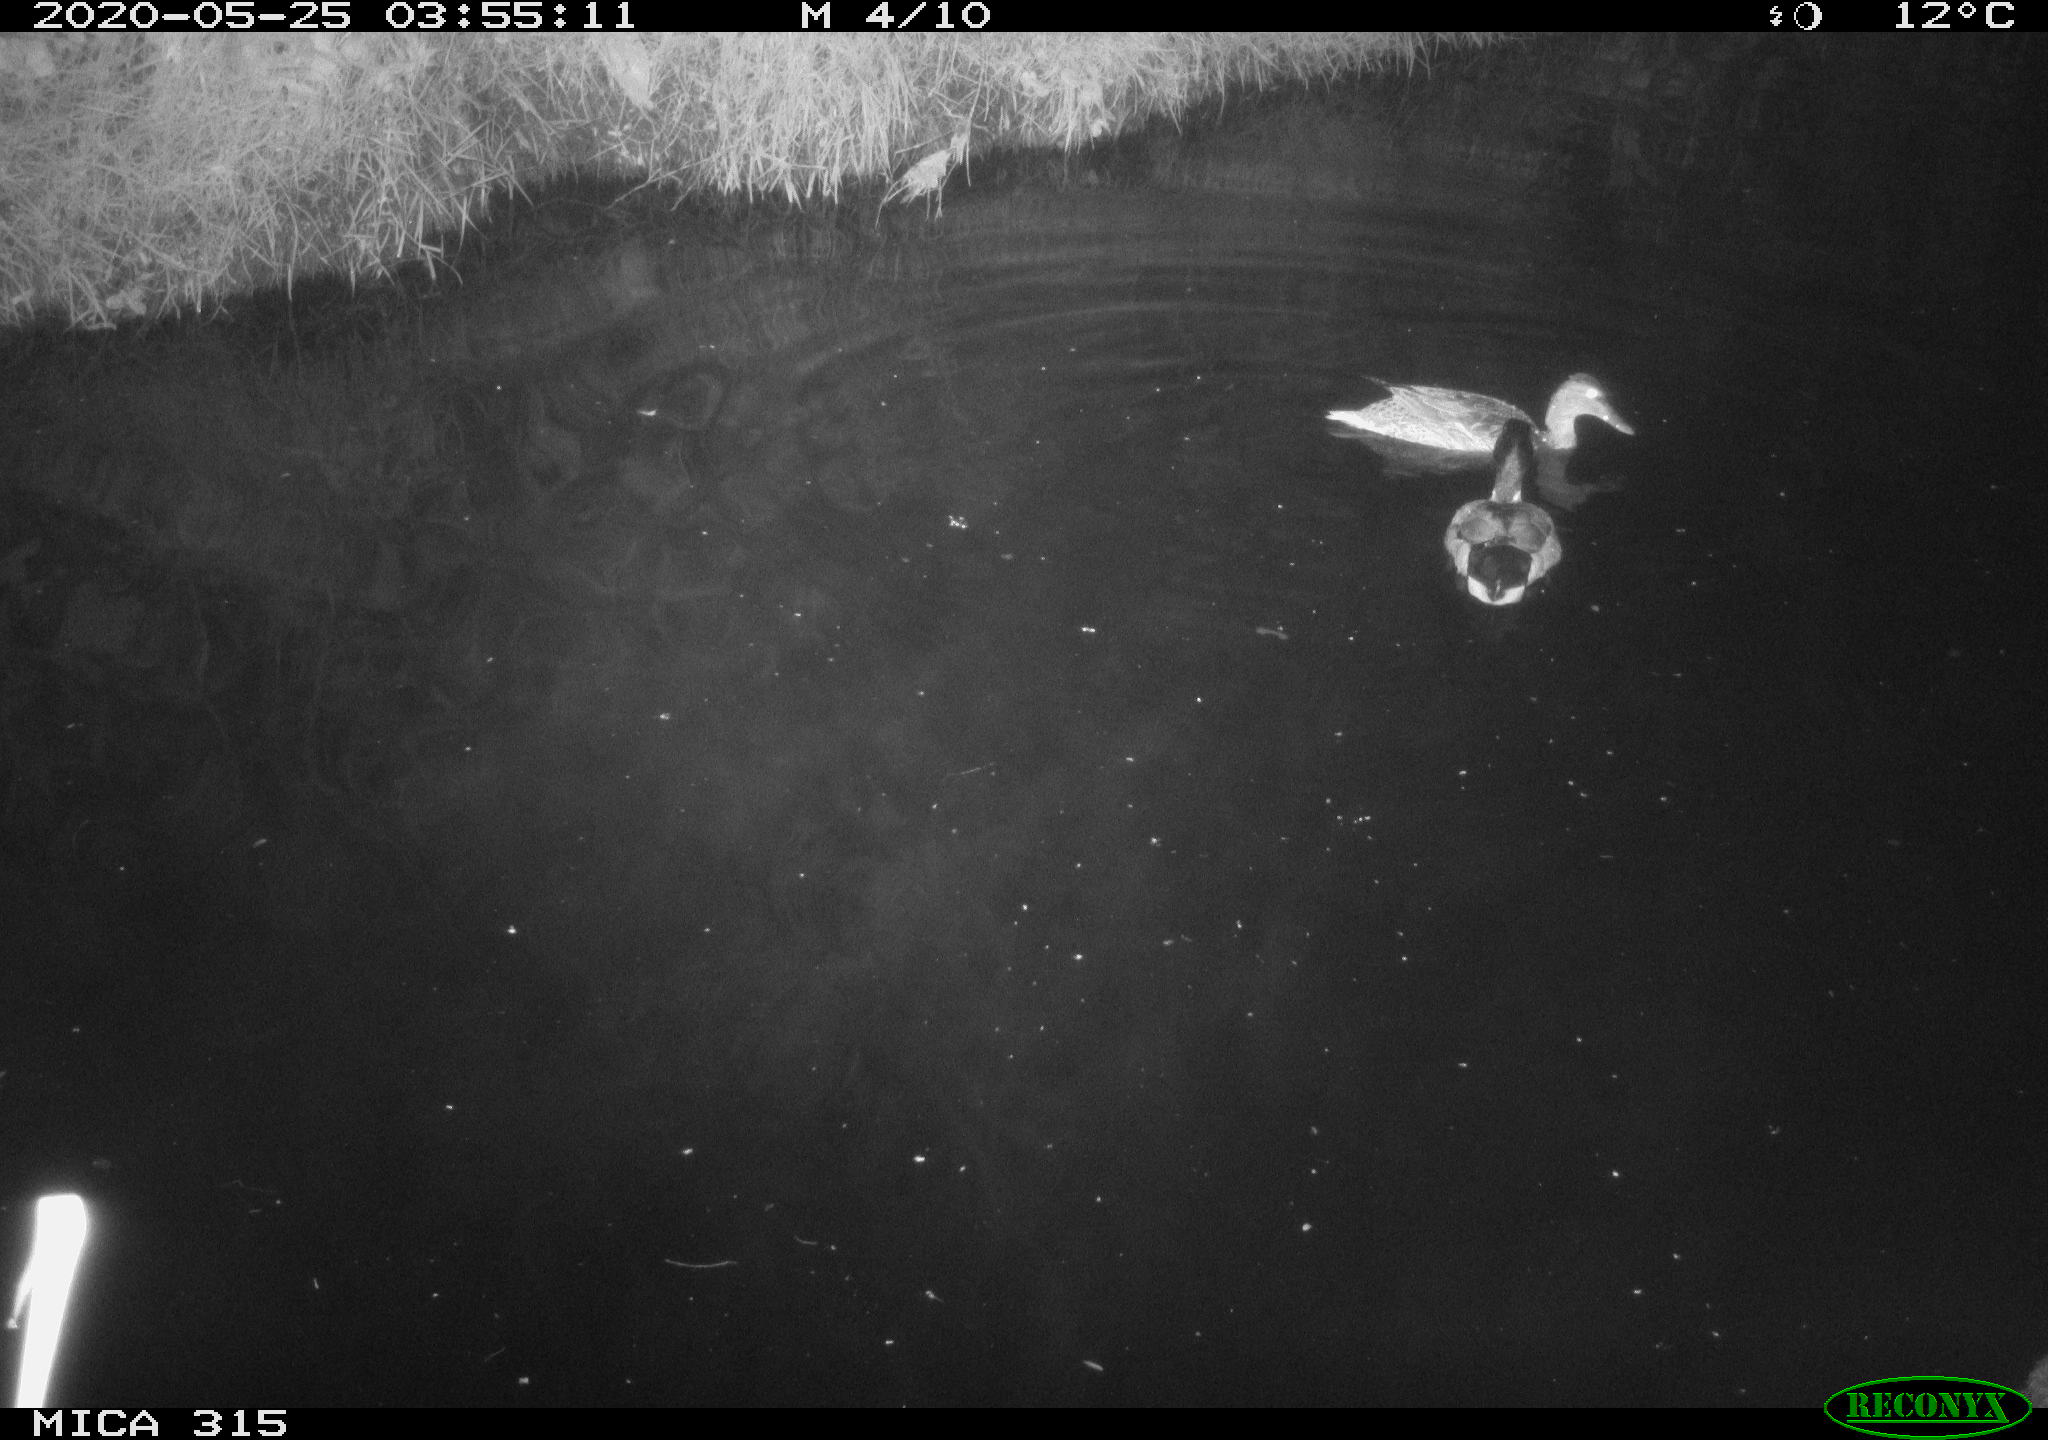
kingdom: Animalia
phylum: Chordata
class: Aves
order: Anseriformes
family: Anatidae
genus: Anas
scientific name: Anas platyrhynchos
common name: Mallard
